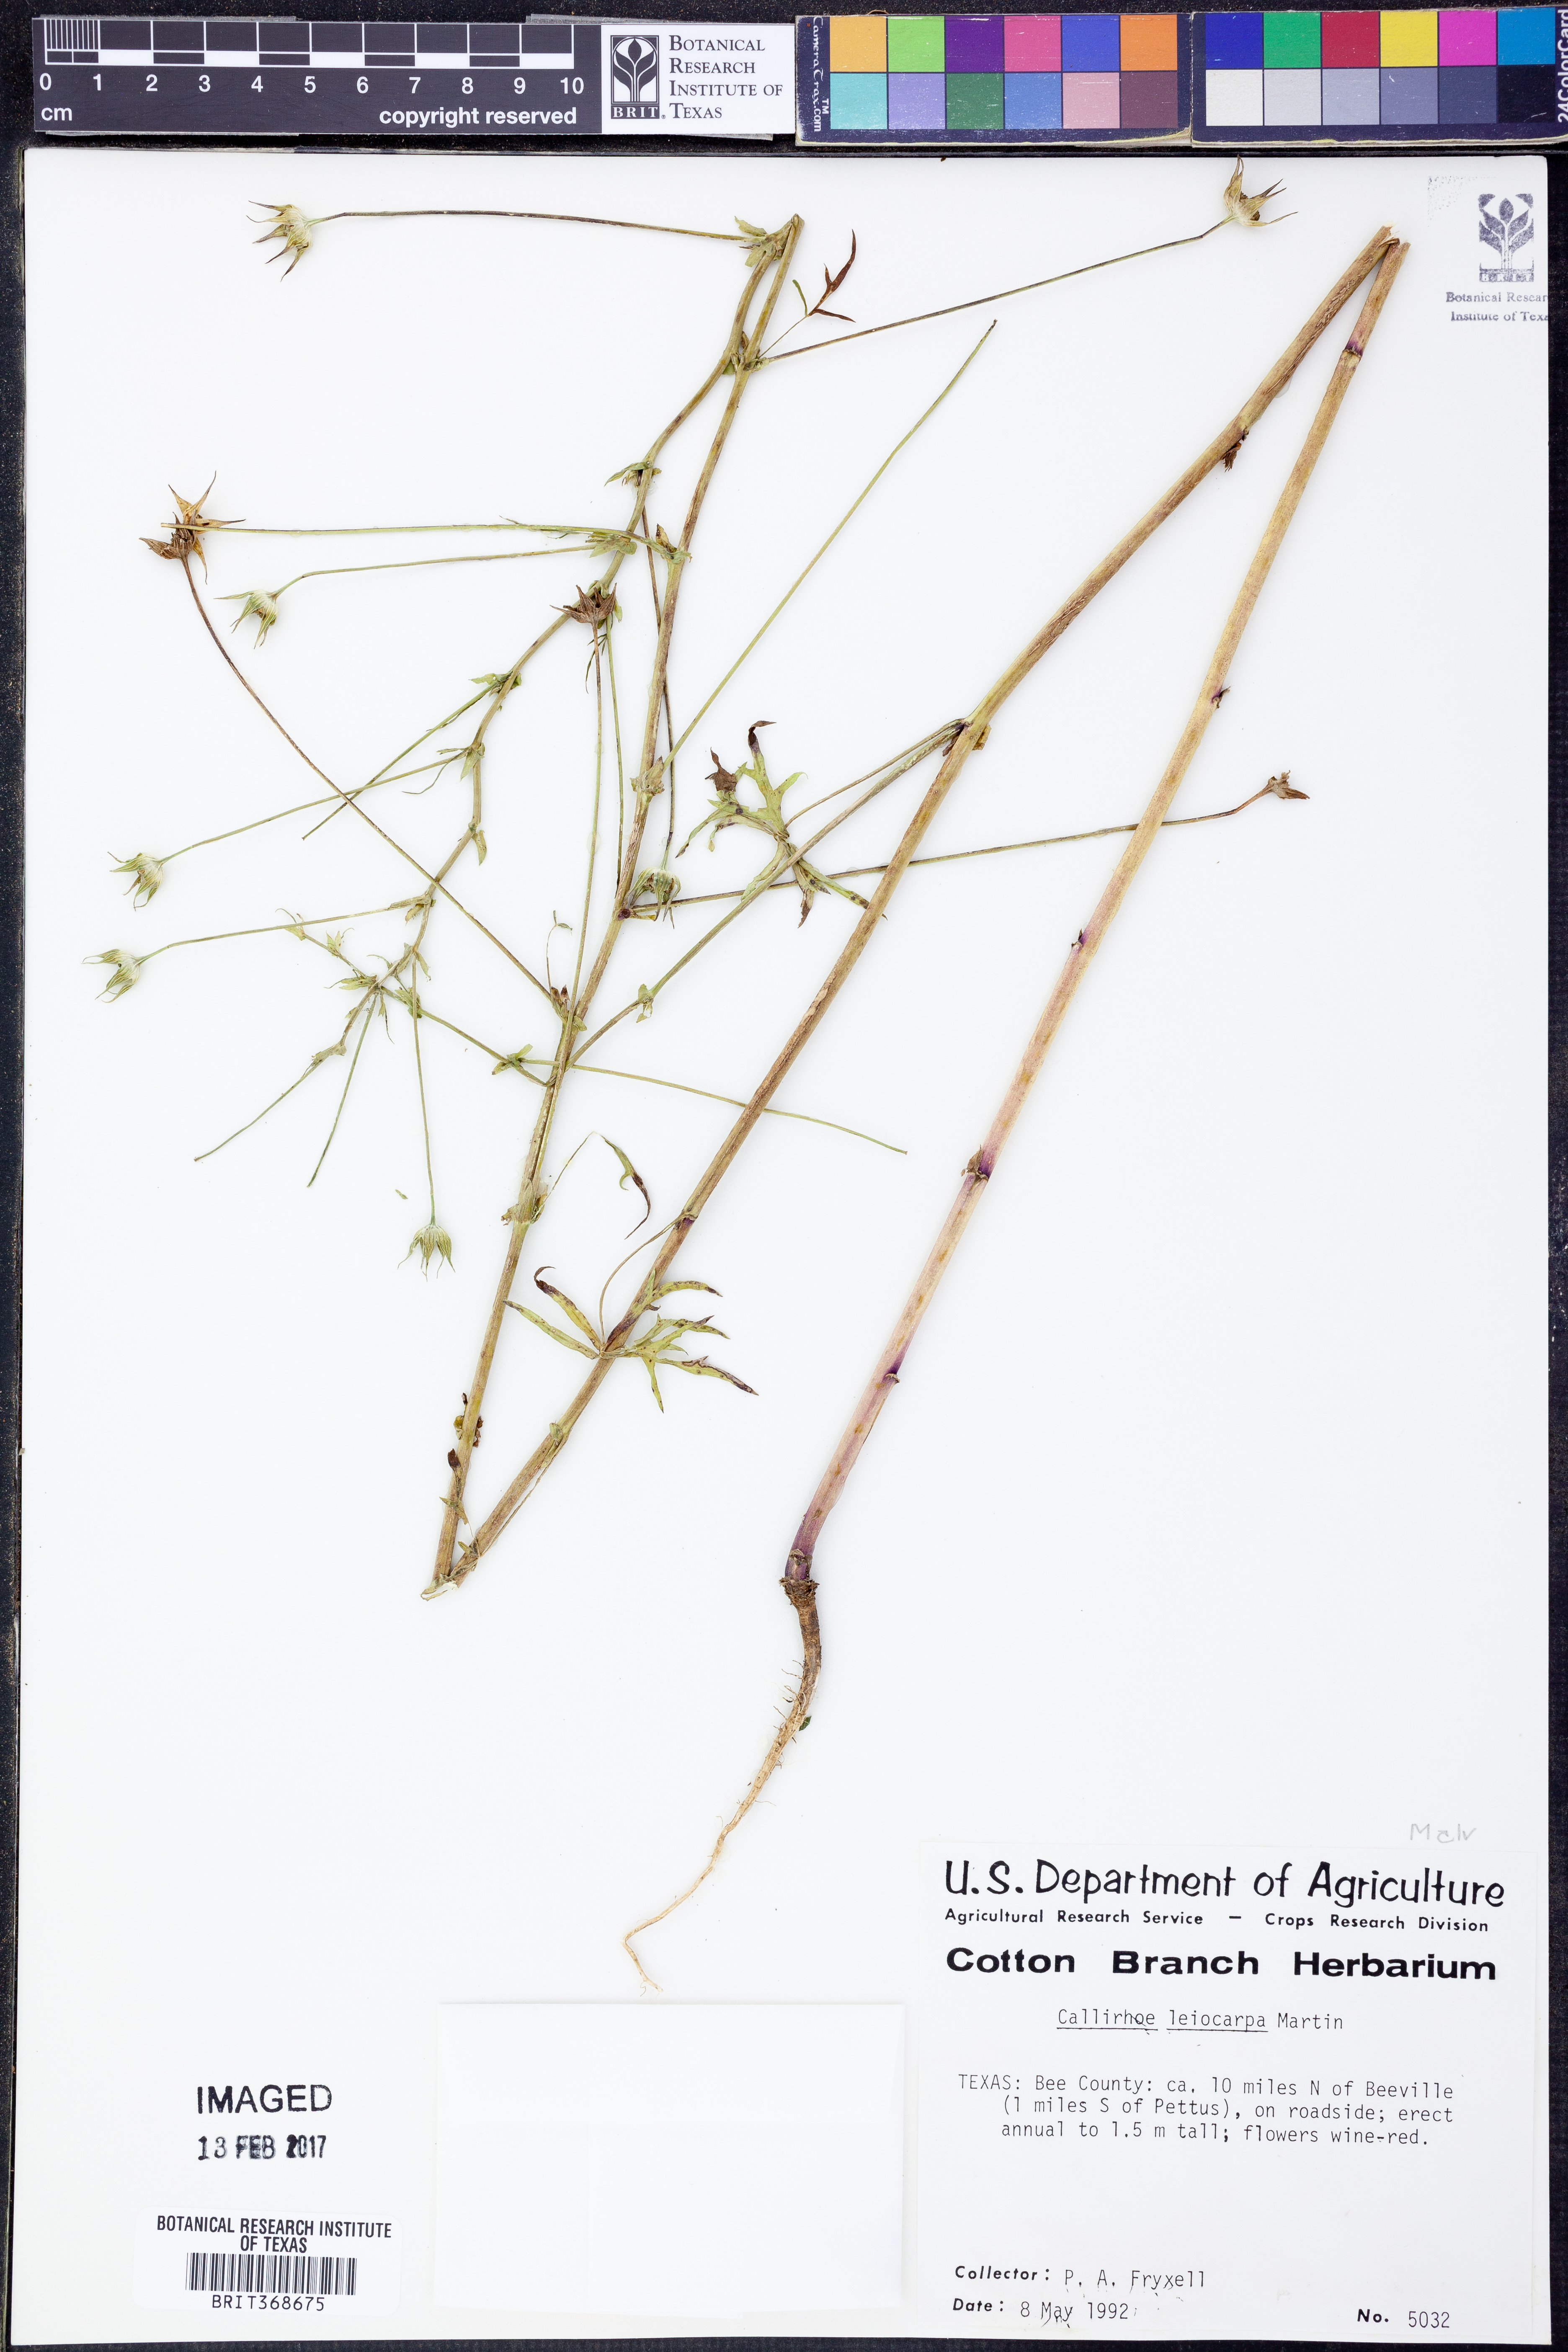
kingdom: Plantae
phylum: Tracheophyta
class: Magnoliopsida
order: Malvales
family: Malvaceae
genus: Callirhoe
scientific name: Callirhoe leiocarpa
